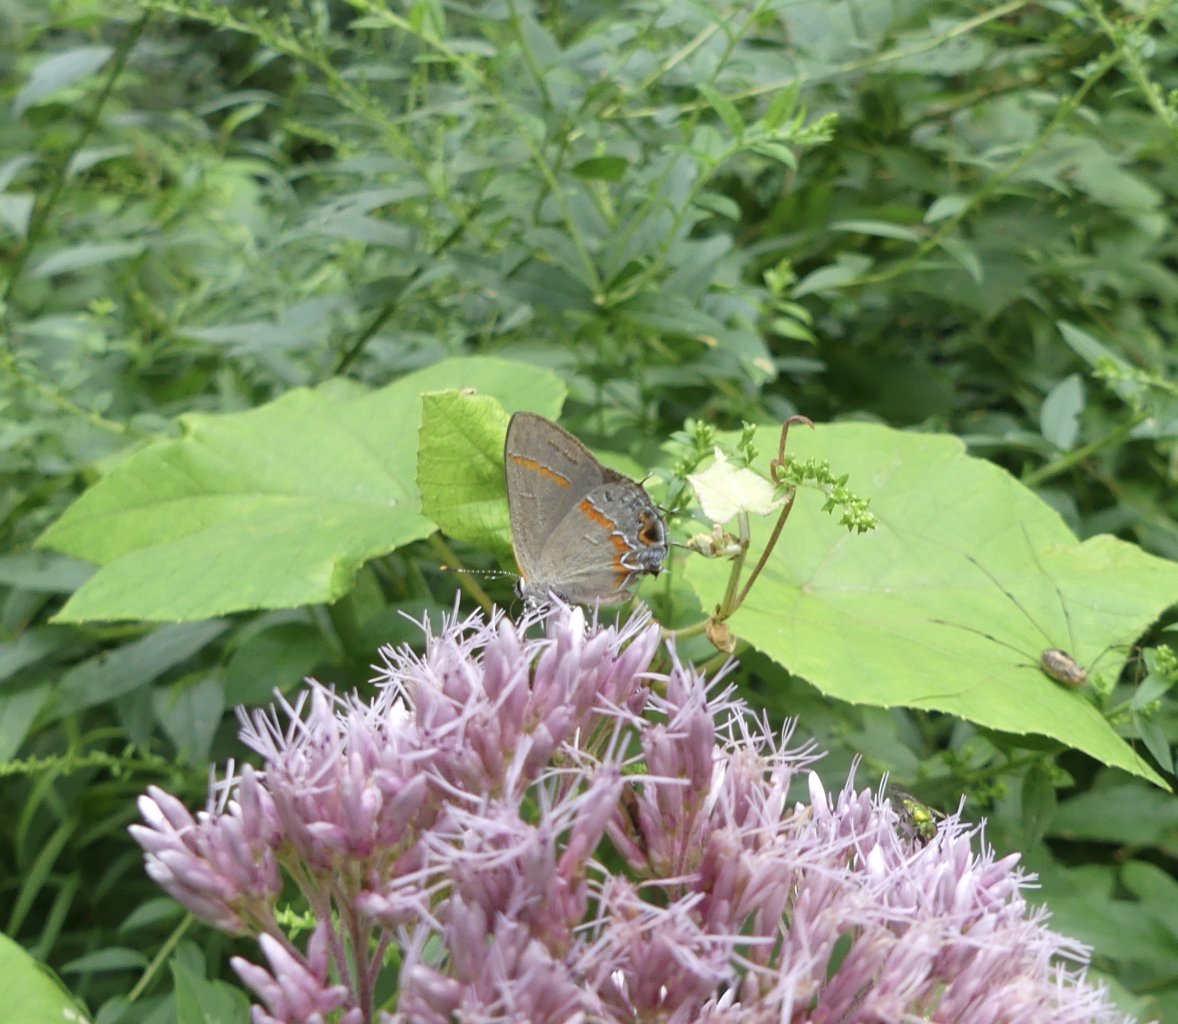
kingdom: Animalia
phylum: Arthropoda
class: Insecta
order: Lepidoptera
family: Lycaenidae
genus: Calycopis
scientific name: Calycopis cecrops
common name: Red-banded Hairstreak
